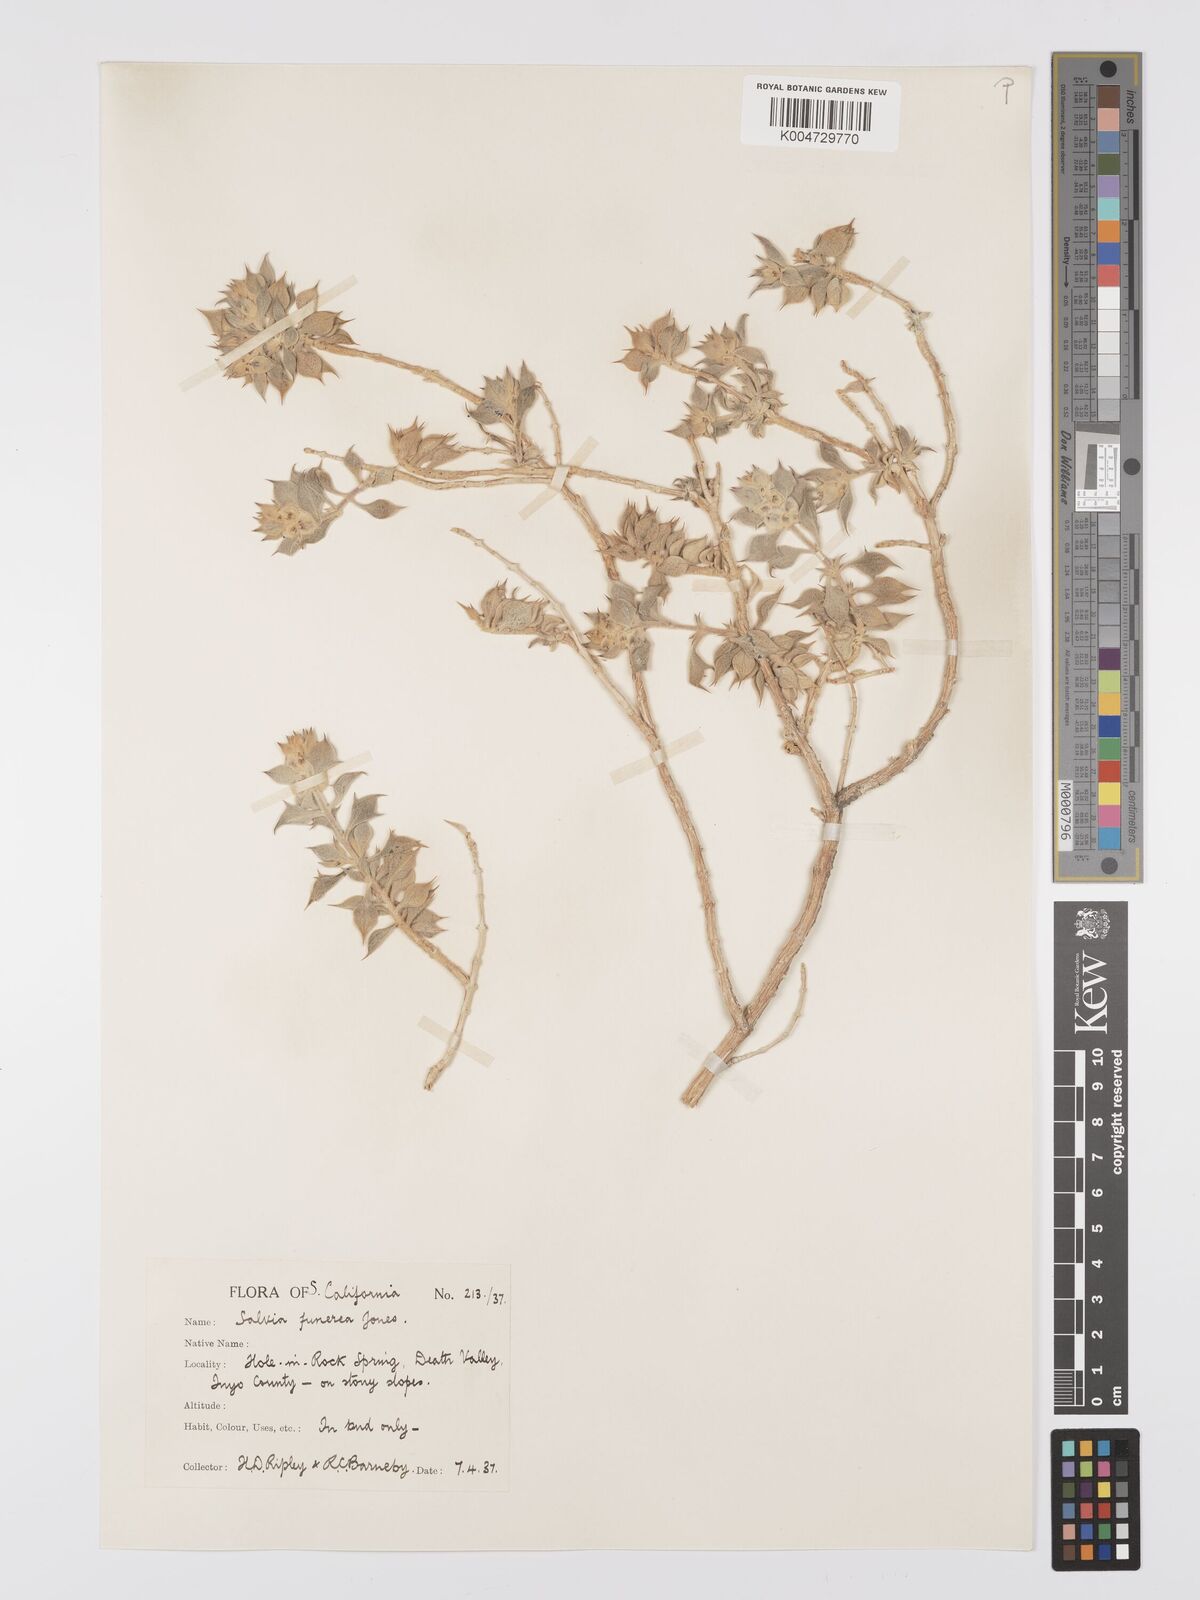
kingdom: Plantae
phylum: Tracheophyta
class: Magnoliopsida
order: Lamiales
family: Lamiaceae
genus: Salvia
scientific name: Salvia funerea
